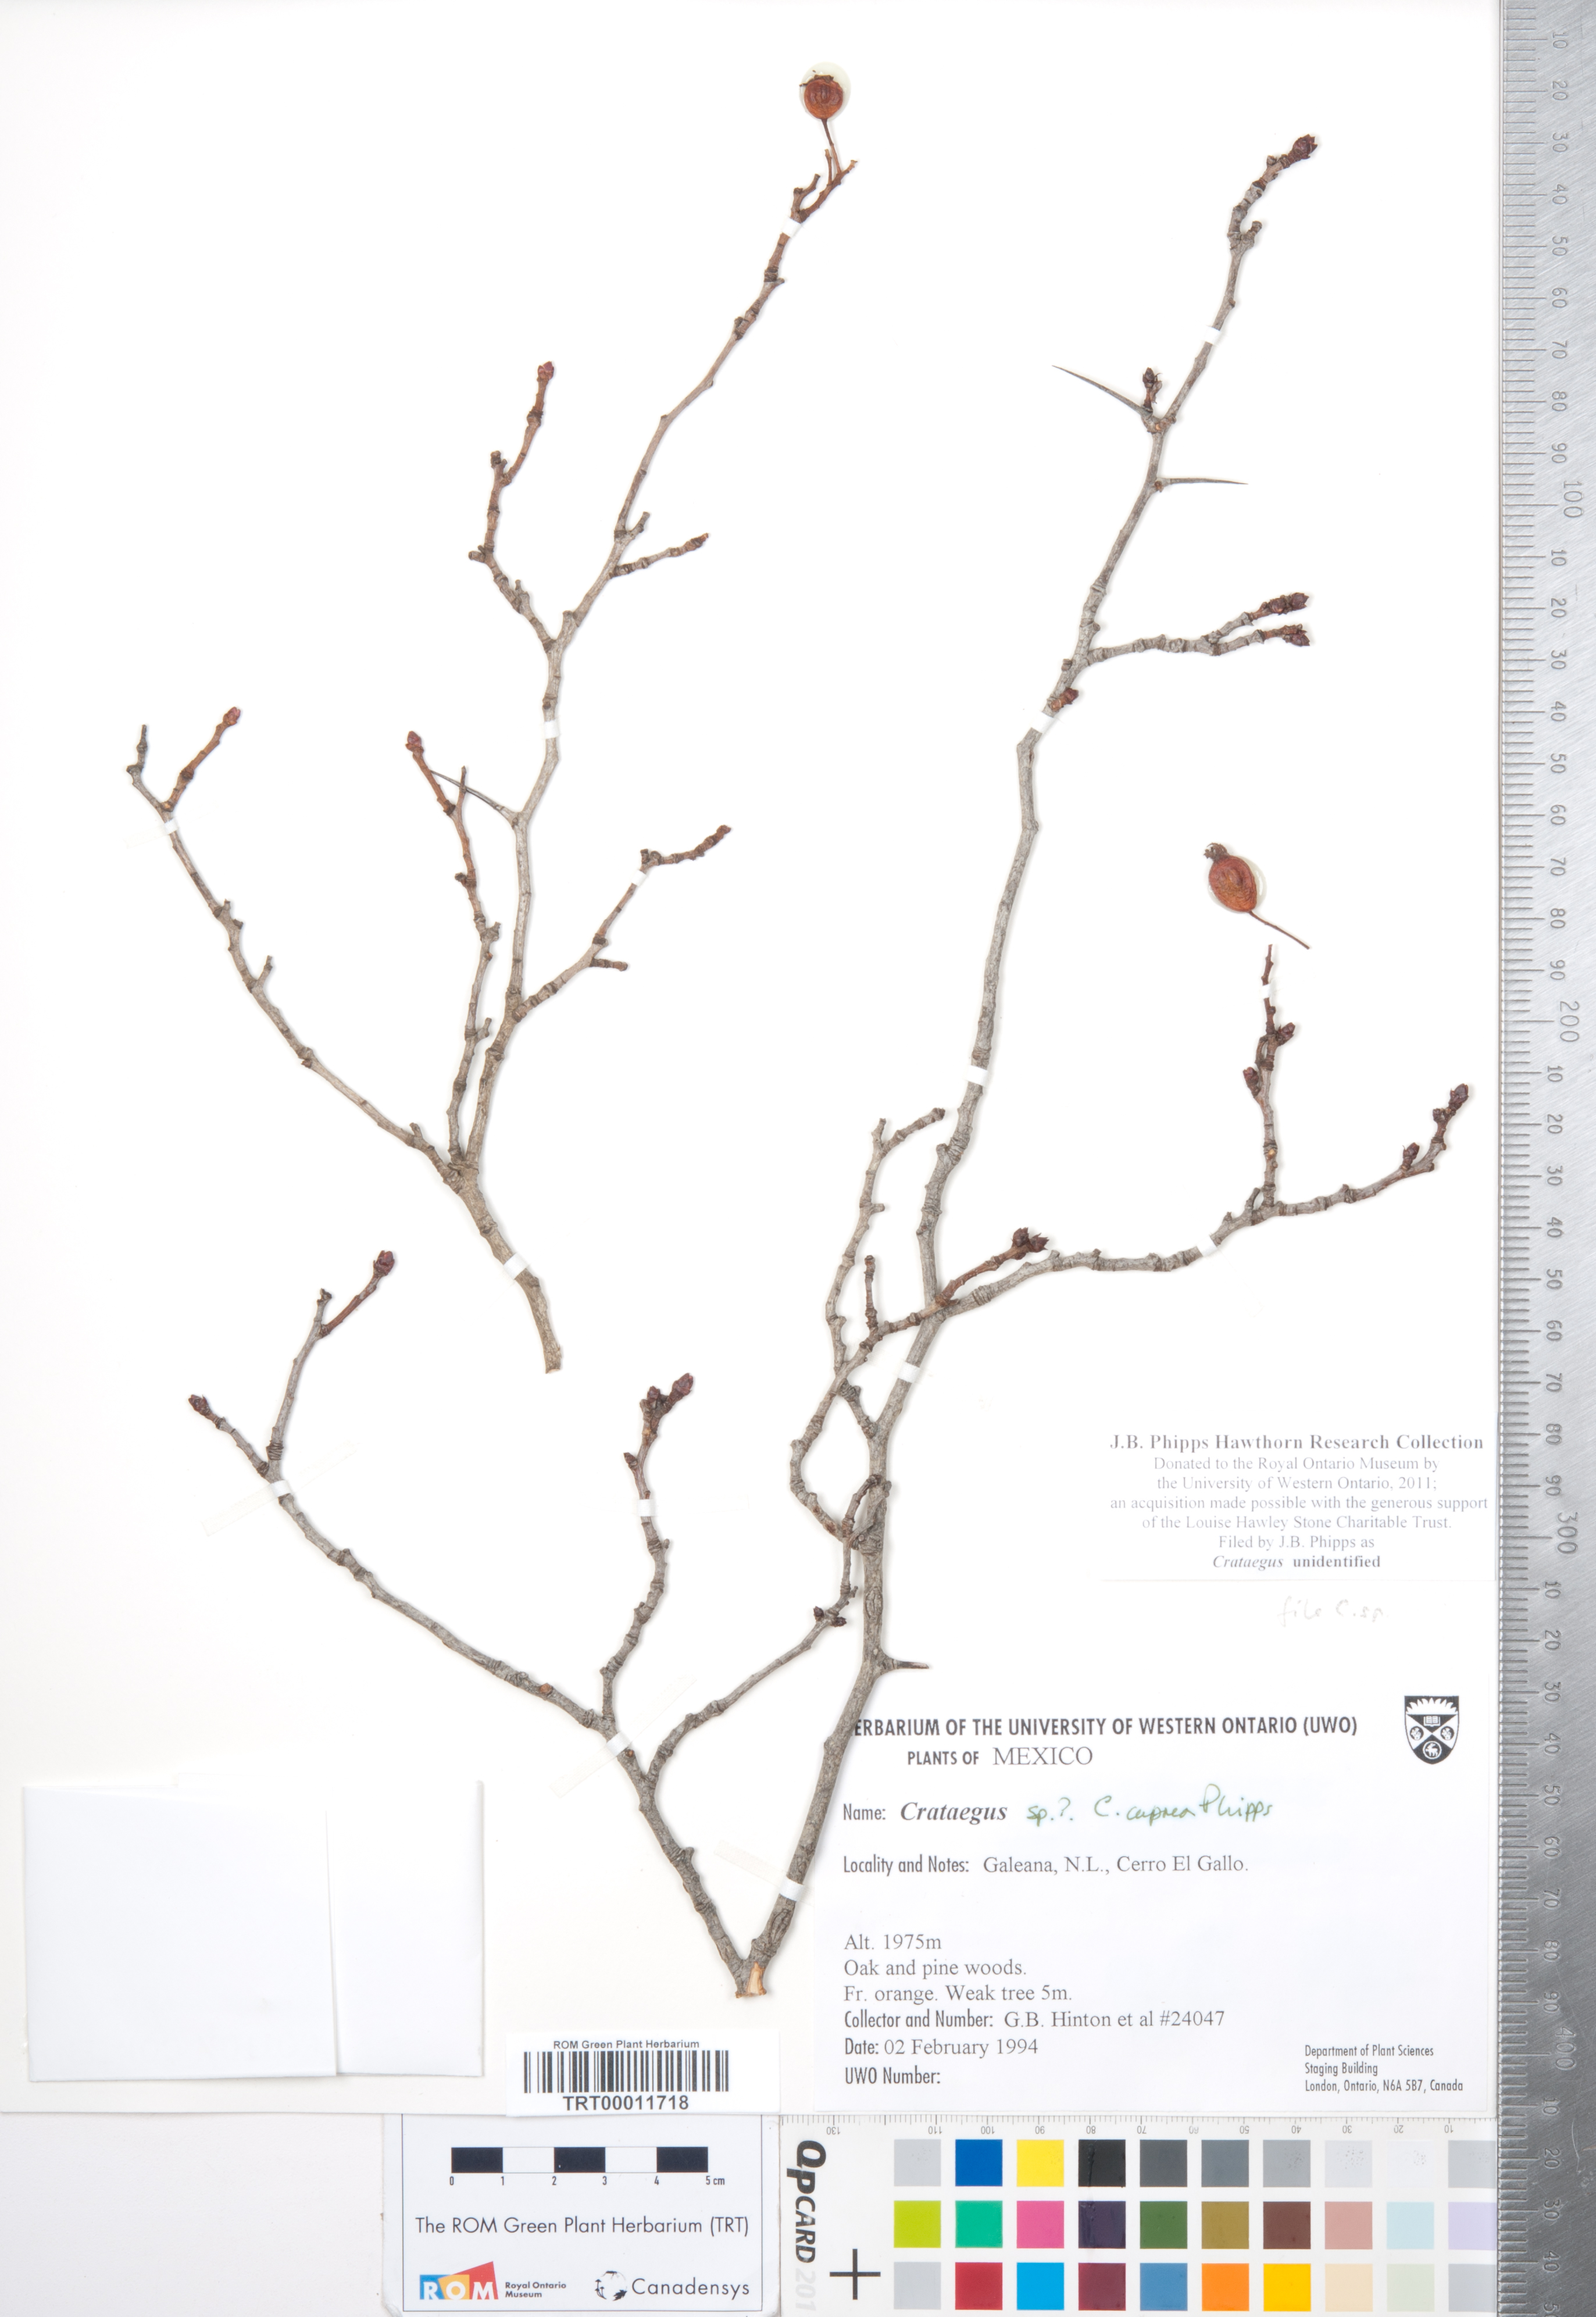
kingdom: Plantae
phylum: Tracheophyta
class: Magnoliopsida
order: Rosales
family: Rosaceae
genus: Crataegus
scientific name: Crataegus
